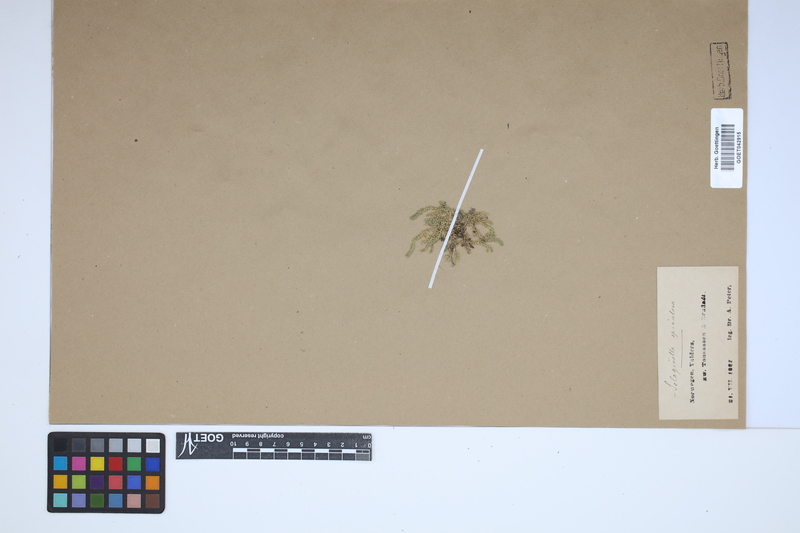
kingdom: Plantae
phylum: Tracheophyta
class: Lycopodiopsida
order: Selaginellales
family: Selaginellaceae
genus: Selaginella
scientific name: Selaginella selaginoides
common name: Prickly mountain-moss
